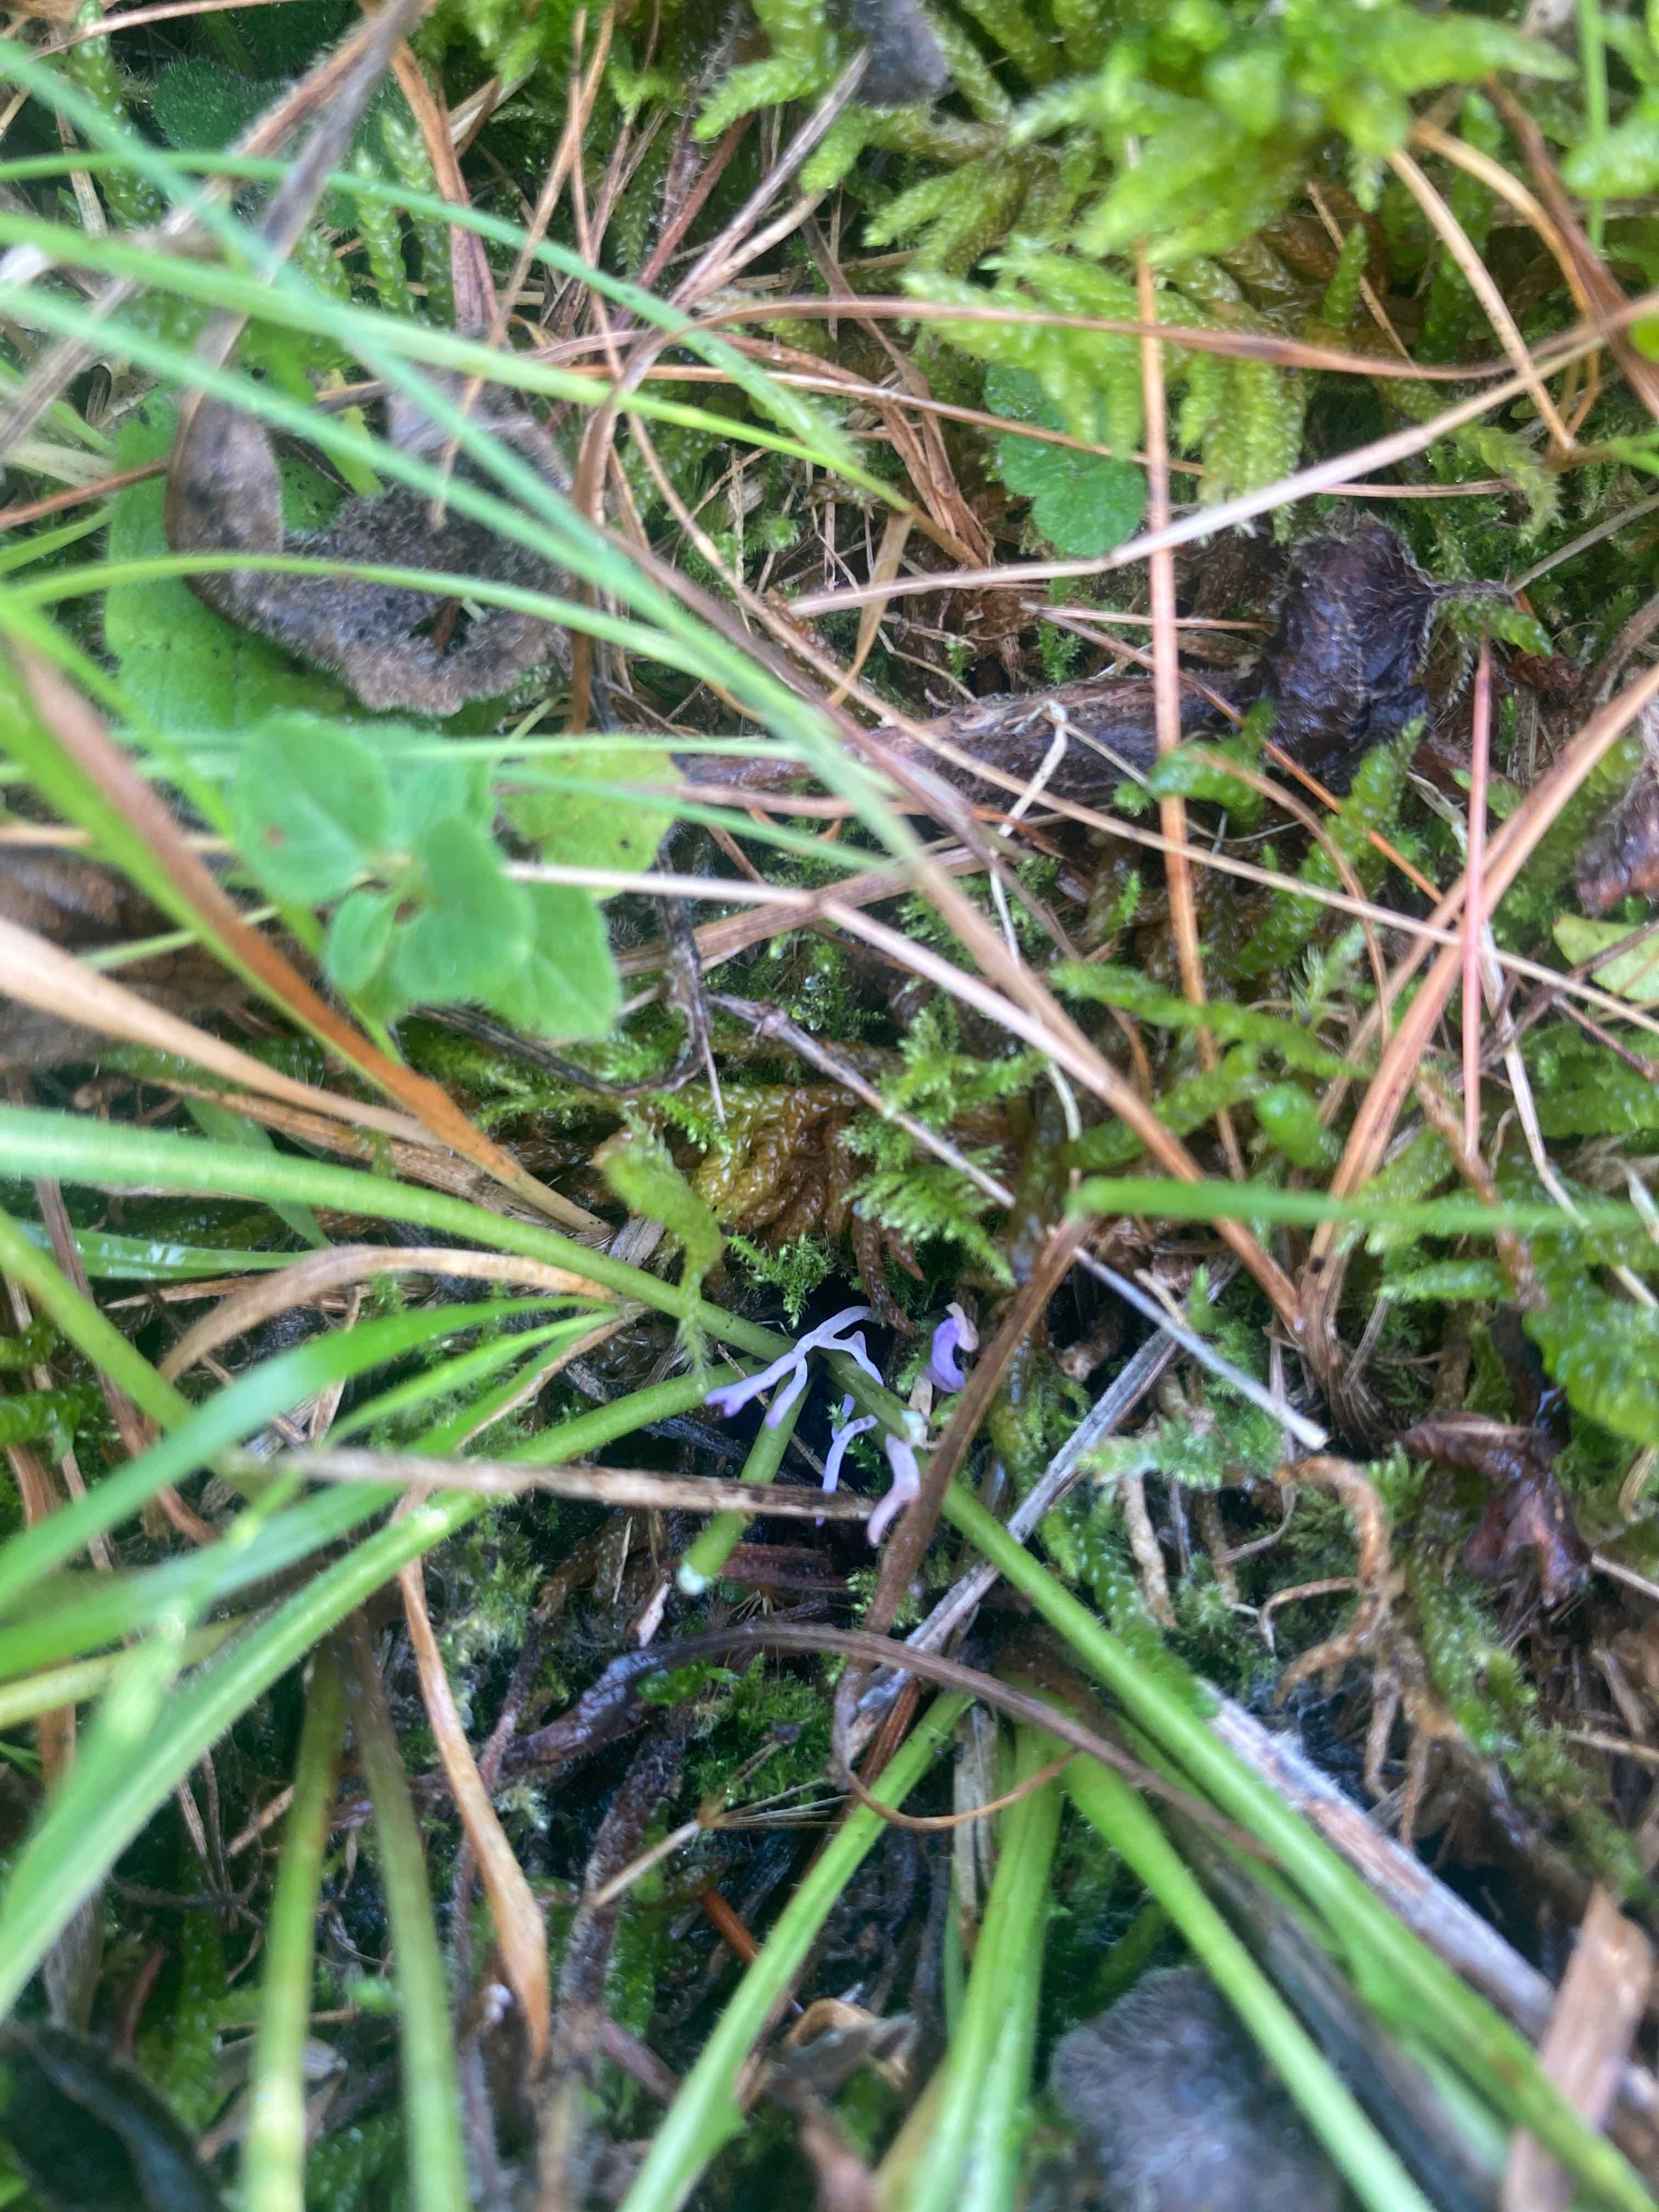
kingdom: Fungi
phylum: Basidiomycota
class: Agaricomycetes
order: Agaricales
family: Clavariaceae
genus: Ramariopsis
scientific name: Ramariopsis pulchella
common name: violet køllesvamp
